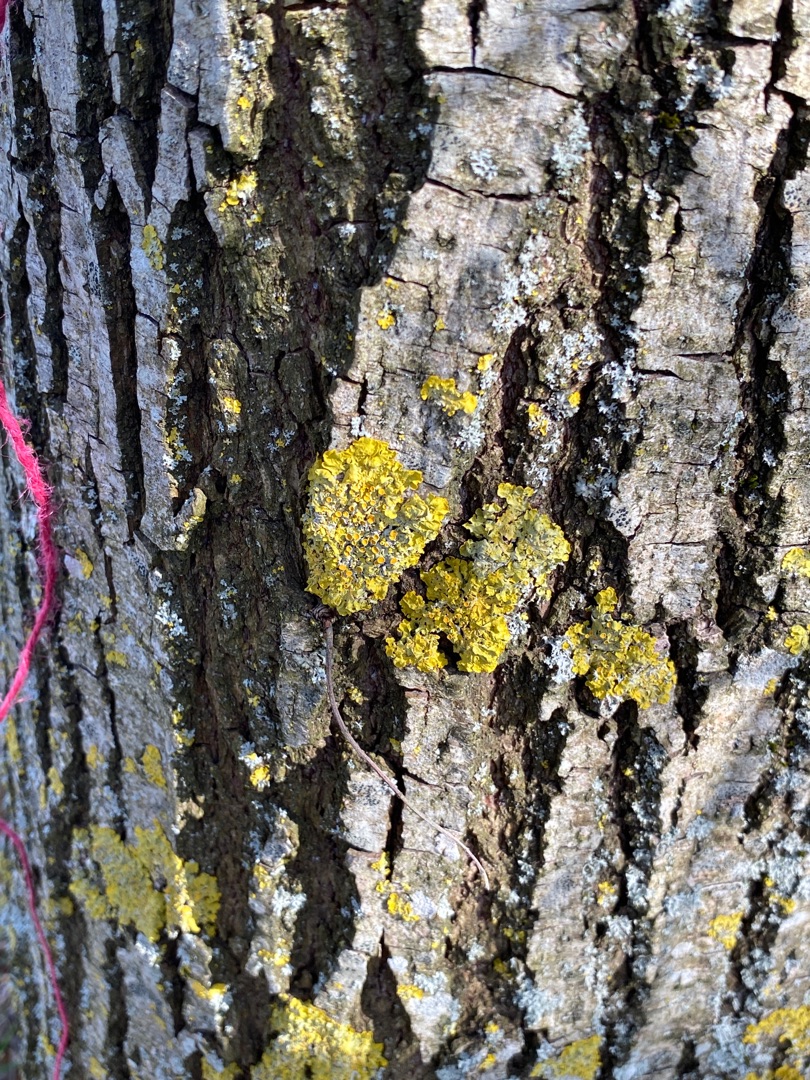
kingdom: Fungi
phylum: Ascomycota
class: Lecanoromycetes
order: Teloschistales
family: Teloschistaceae
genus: Xanthoria
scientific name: Xanthoria parietina
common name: Almindelig væggelav
